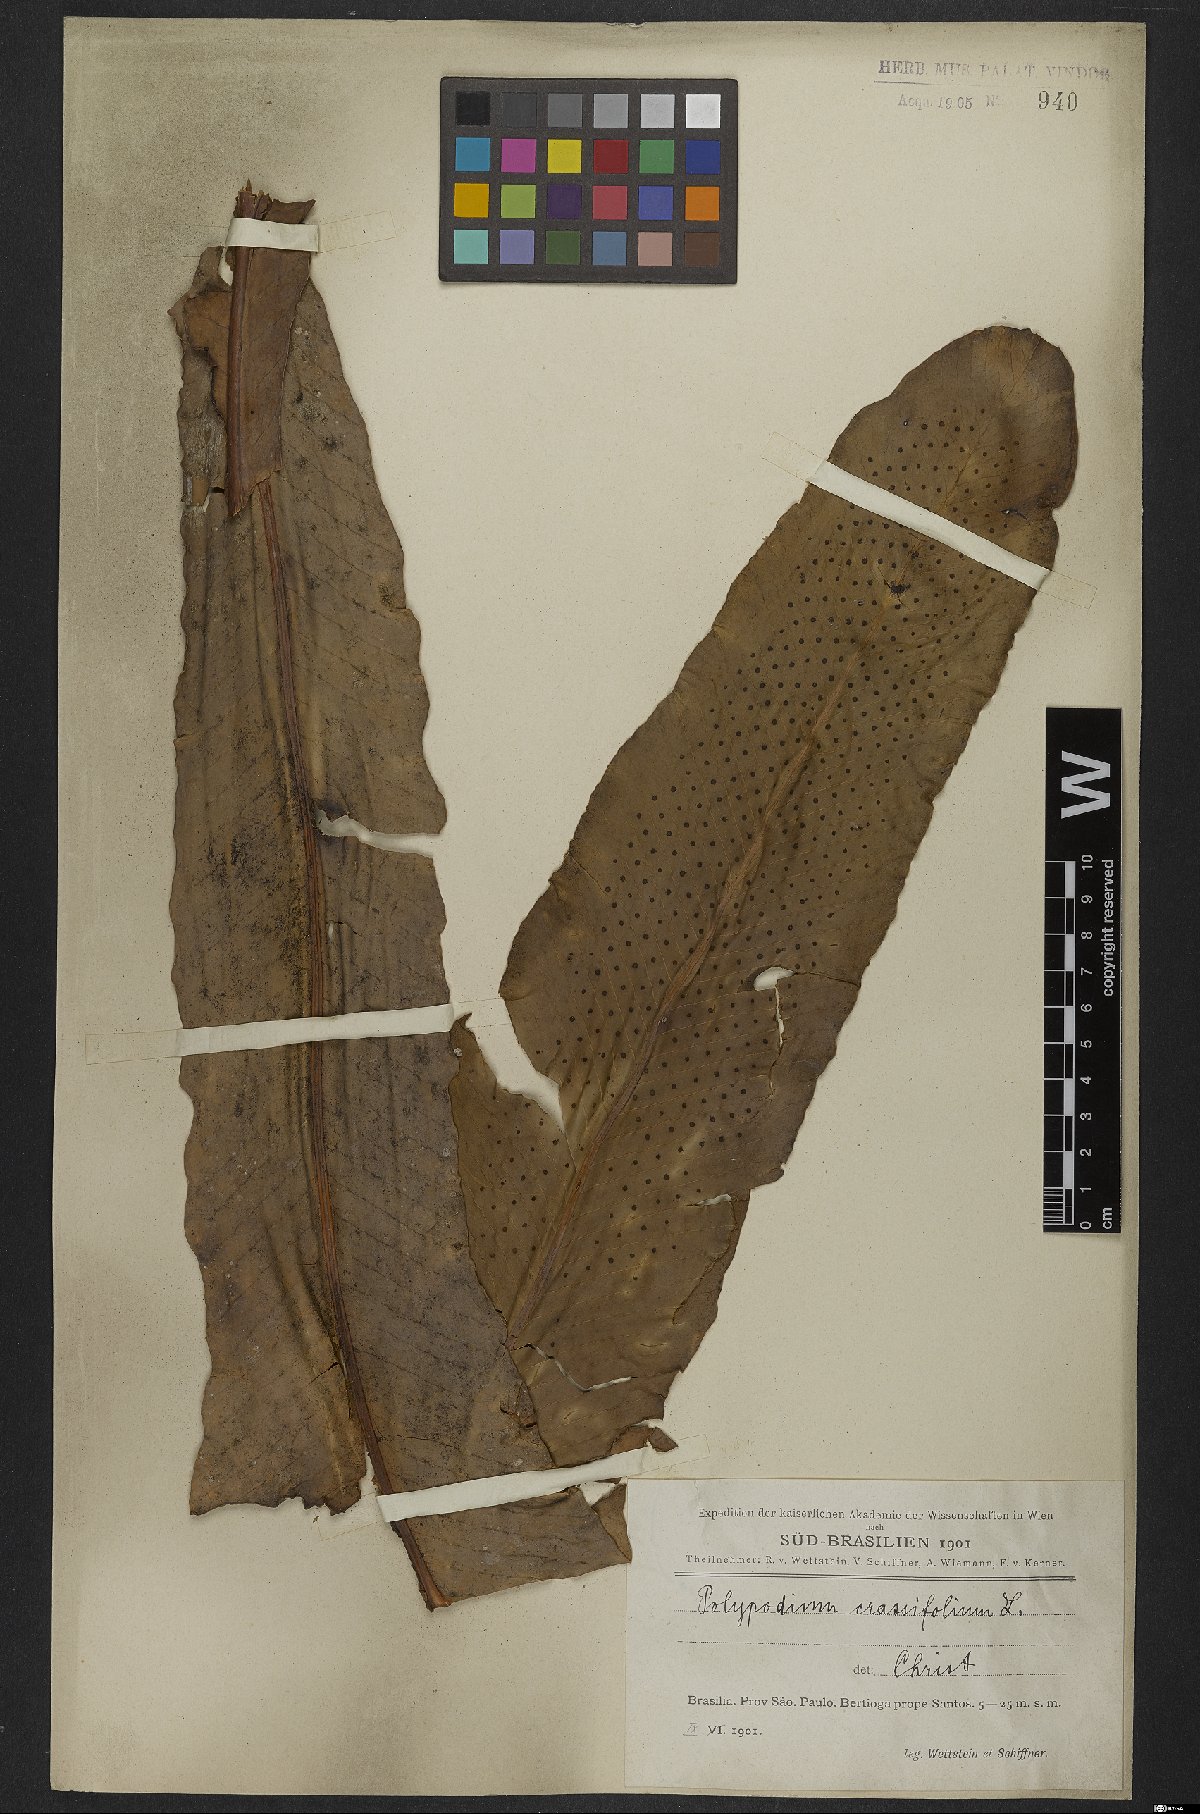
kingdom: Plantae
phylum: Tracheophyta
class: Polypodiopsida
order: Polypodiales
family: Polypodiaceae
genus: Niphidium
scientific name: Niphidium crassifolium
